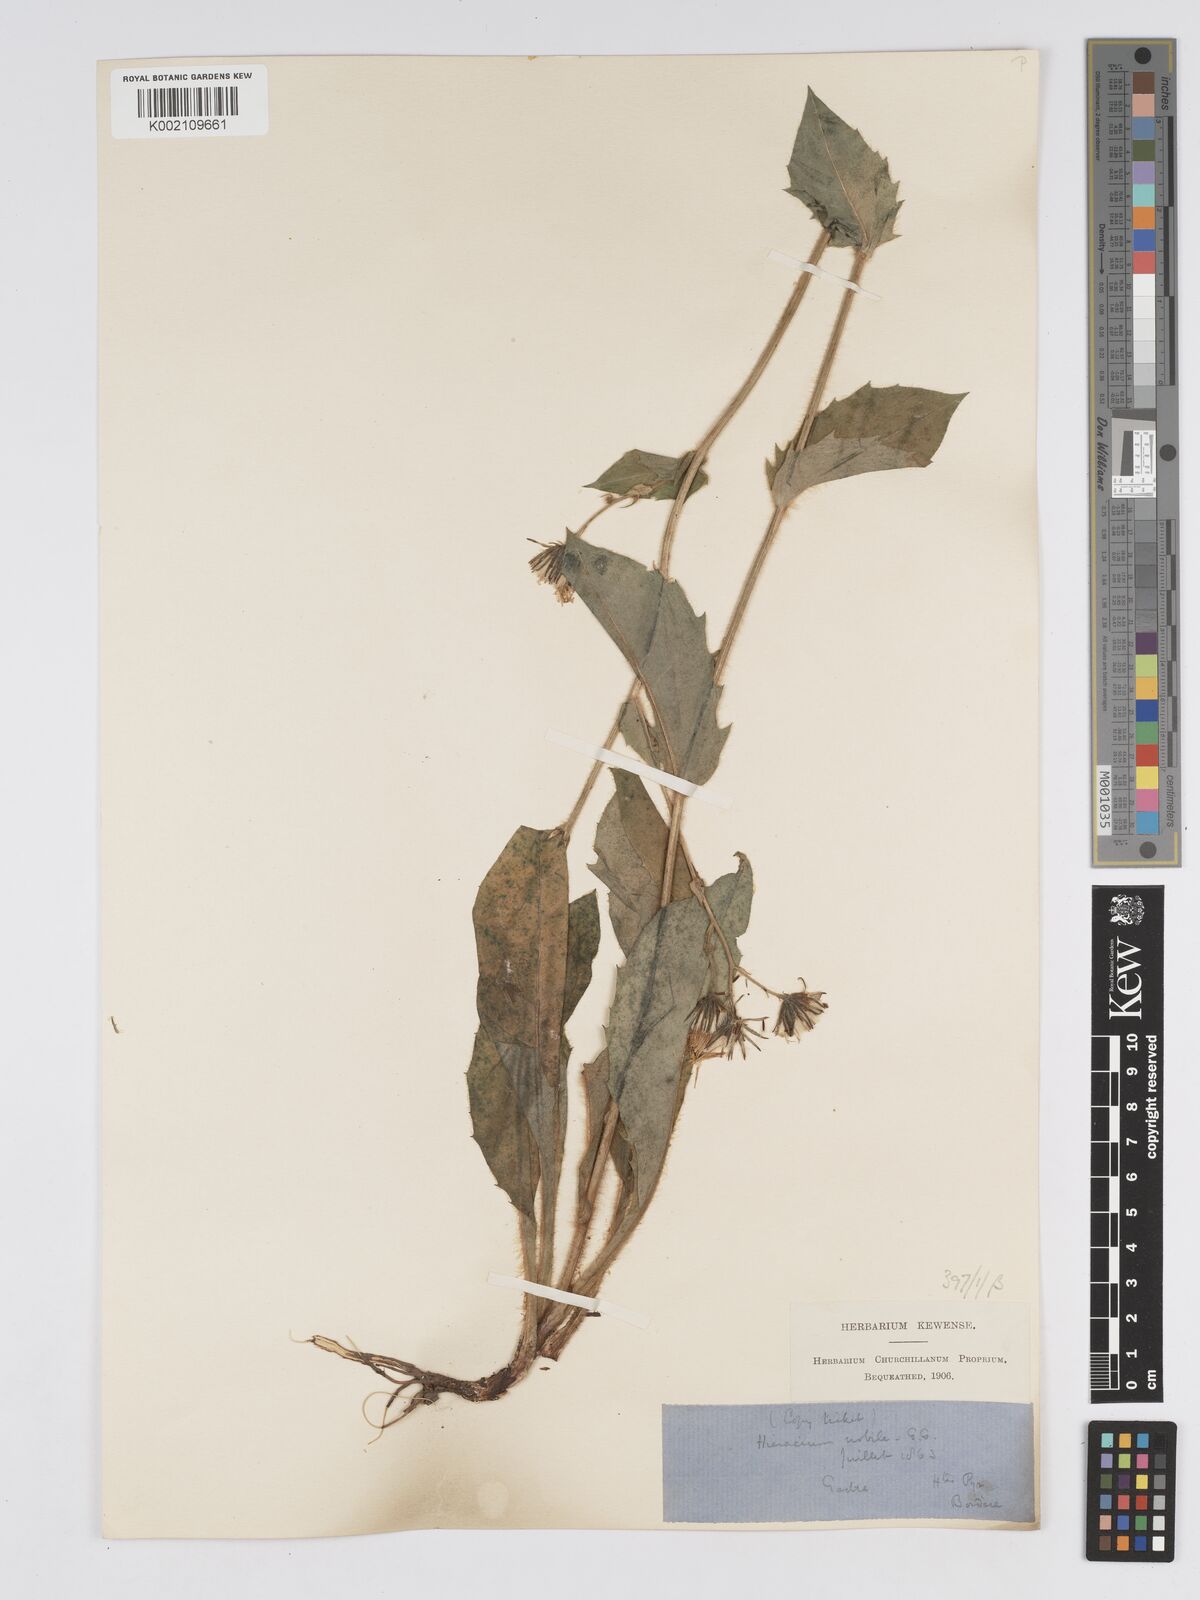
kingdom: Plantae
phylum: Tracheophyta
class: Magnoliopsida
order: Asterales
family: Asteraceae
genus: Hieracium
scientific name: Hieracium nobile
